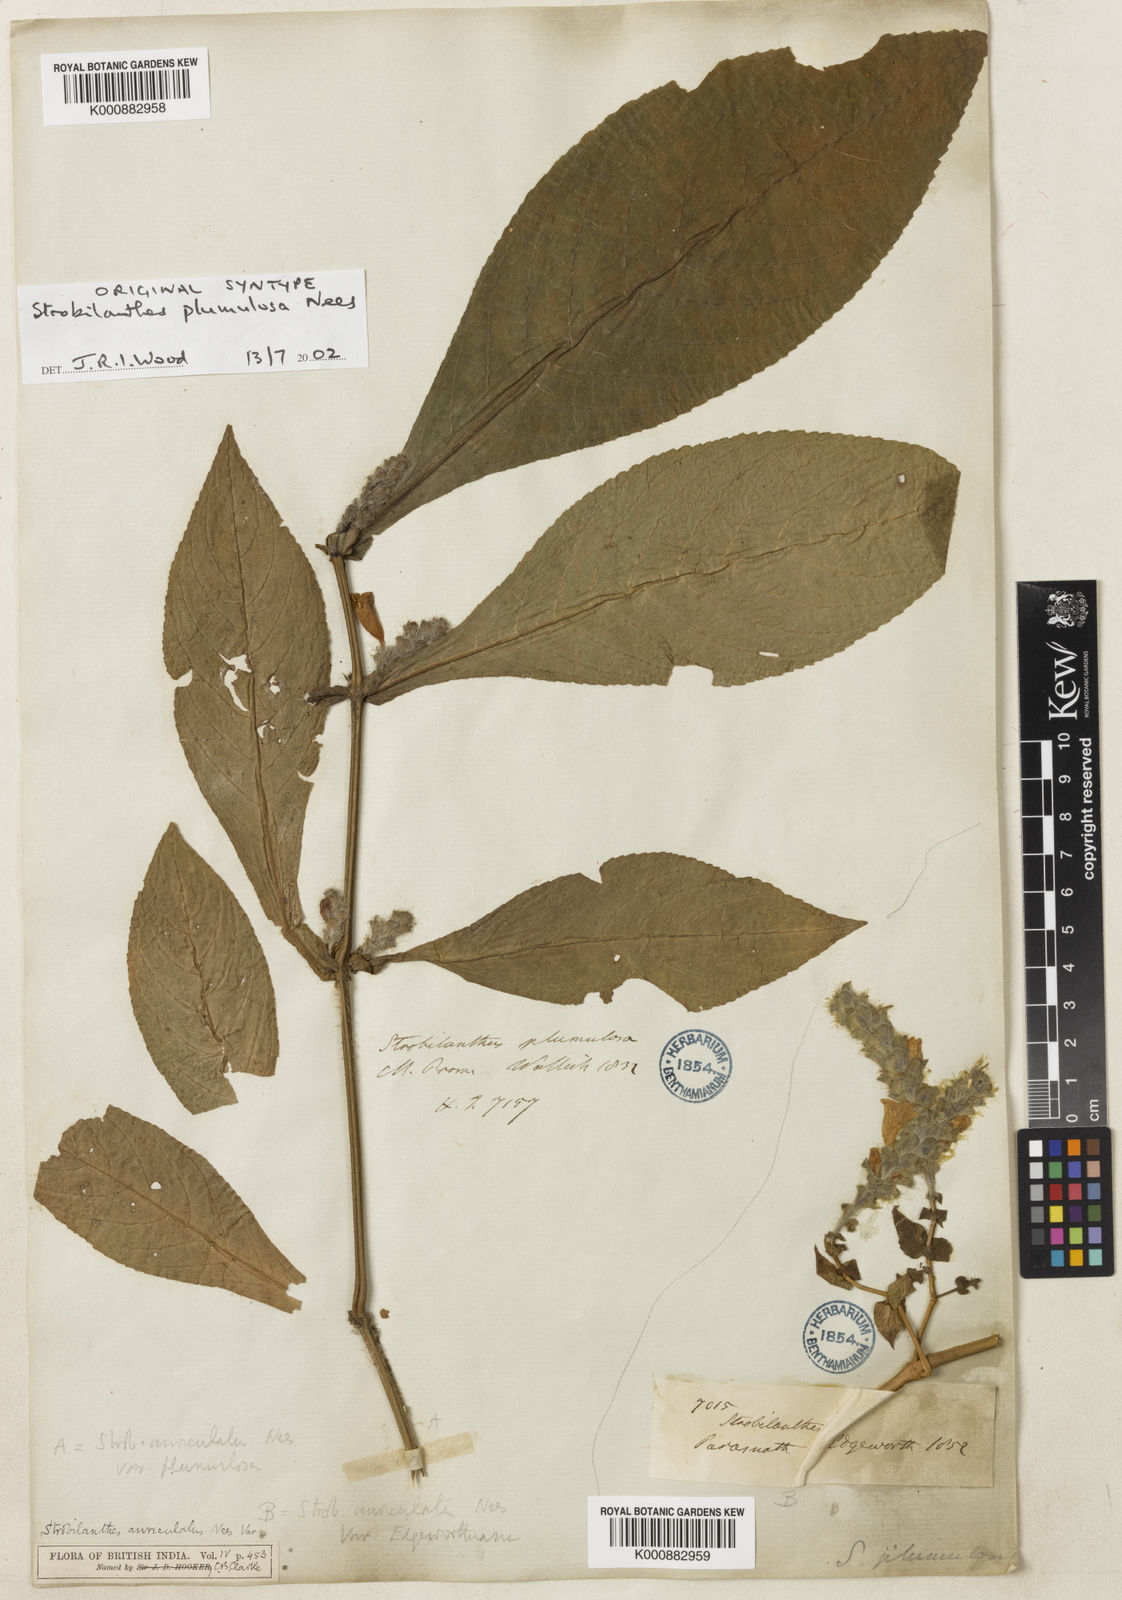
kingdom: Plantae
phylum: Tracheophyta
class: Magnoliopsida
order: Lamiales
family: Acanthaceae
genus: Strobilanthes
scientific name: Strobilanthes auriculata
